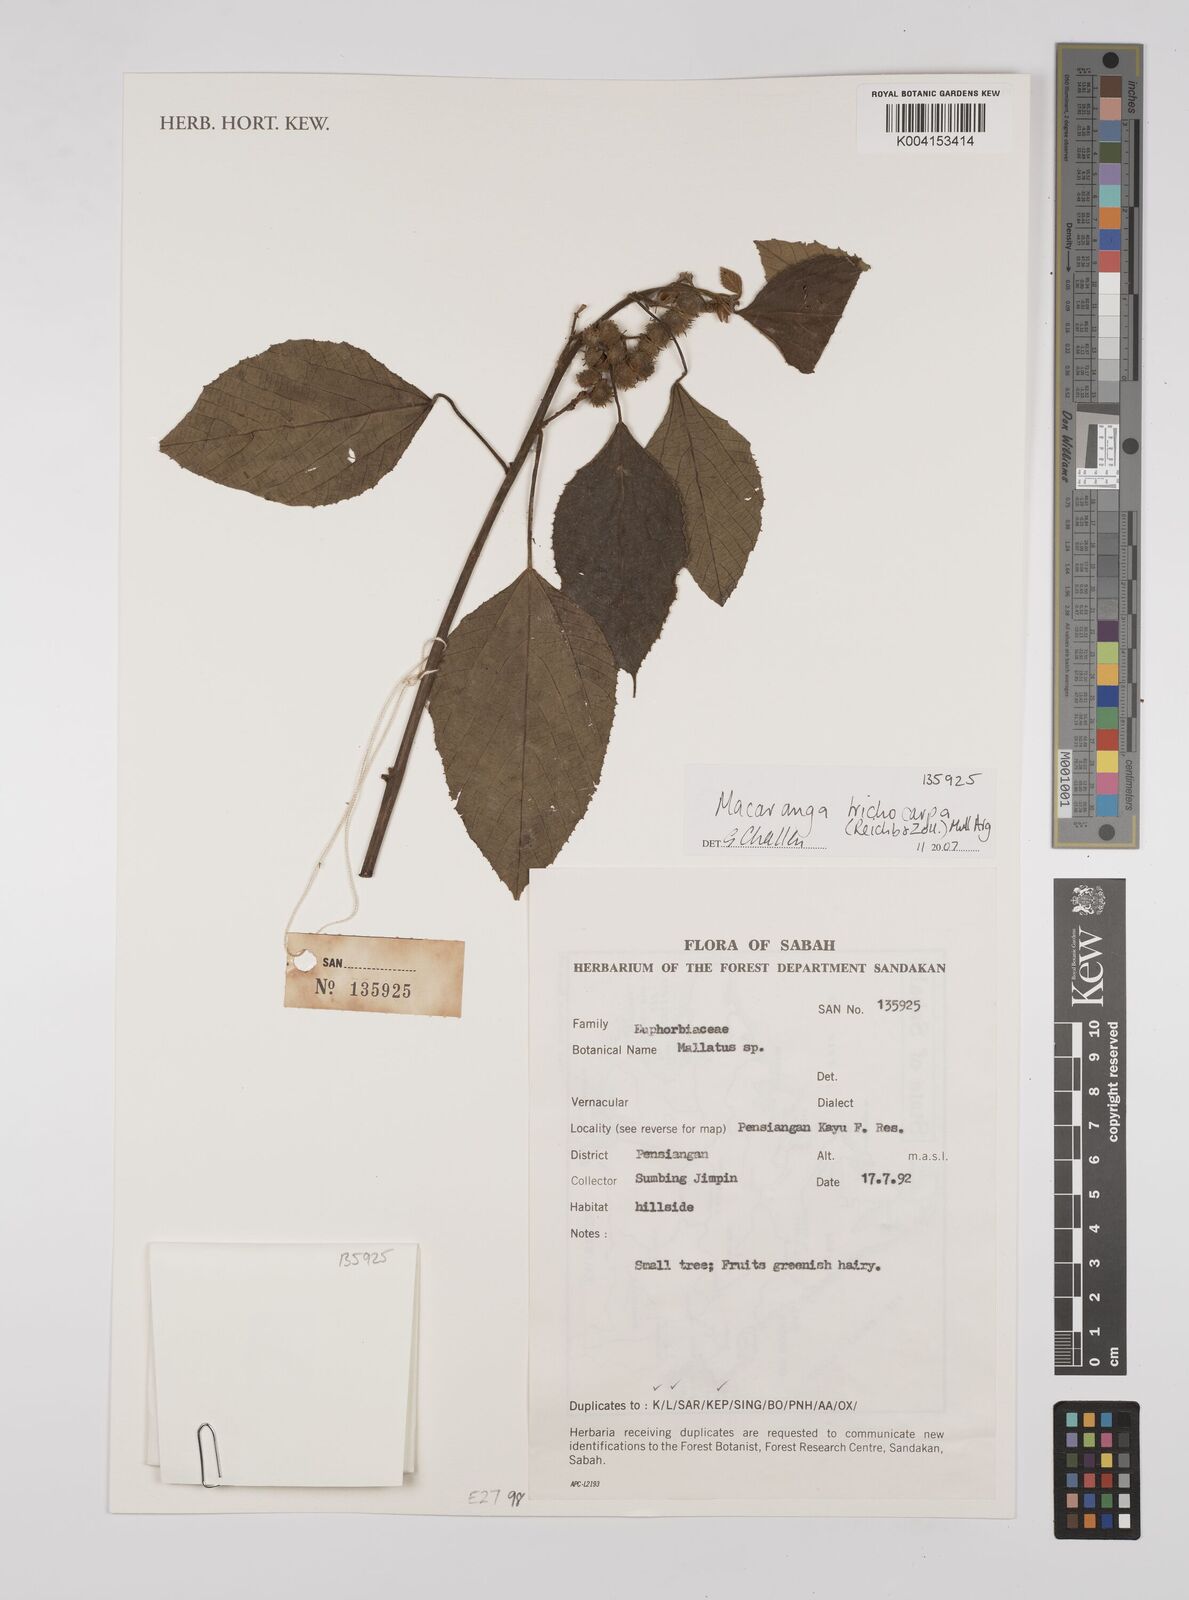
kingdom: Plantae
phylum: Tracheophyta
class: Magnoliopsida
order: Malpighiales
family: Euphorbiaceae
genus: Macaranga
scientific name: Macaranga trichocarpa
